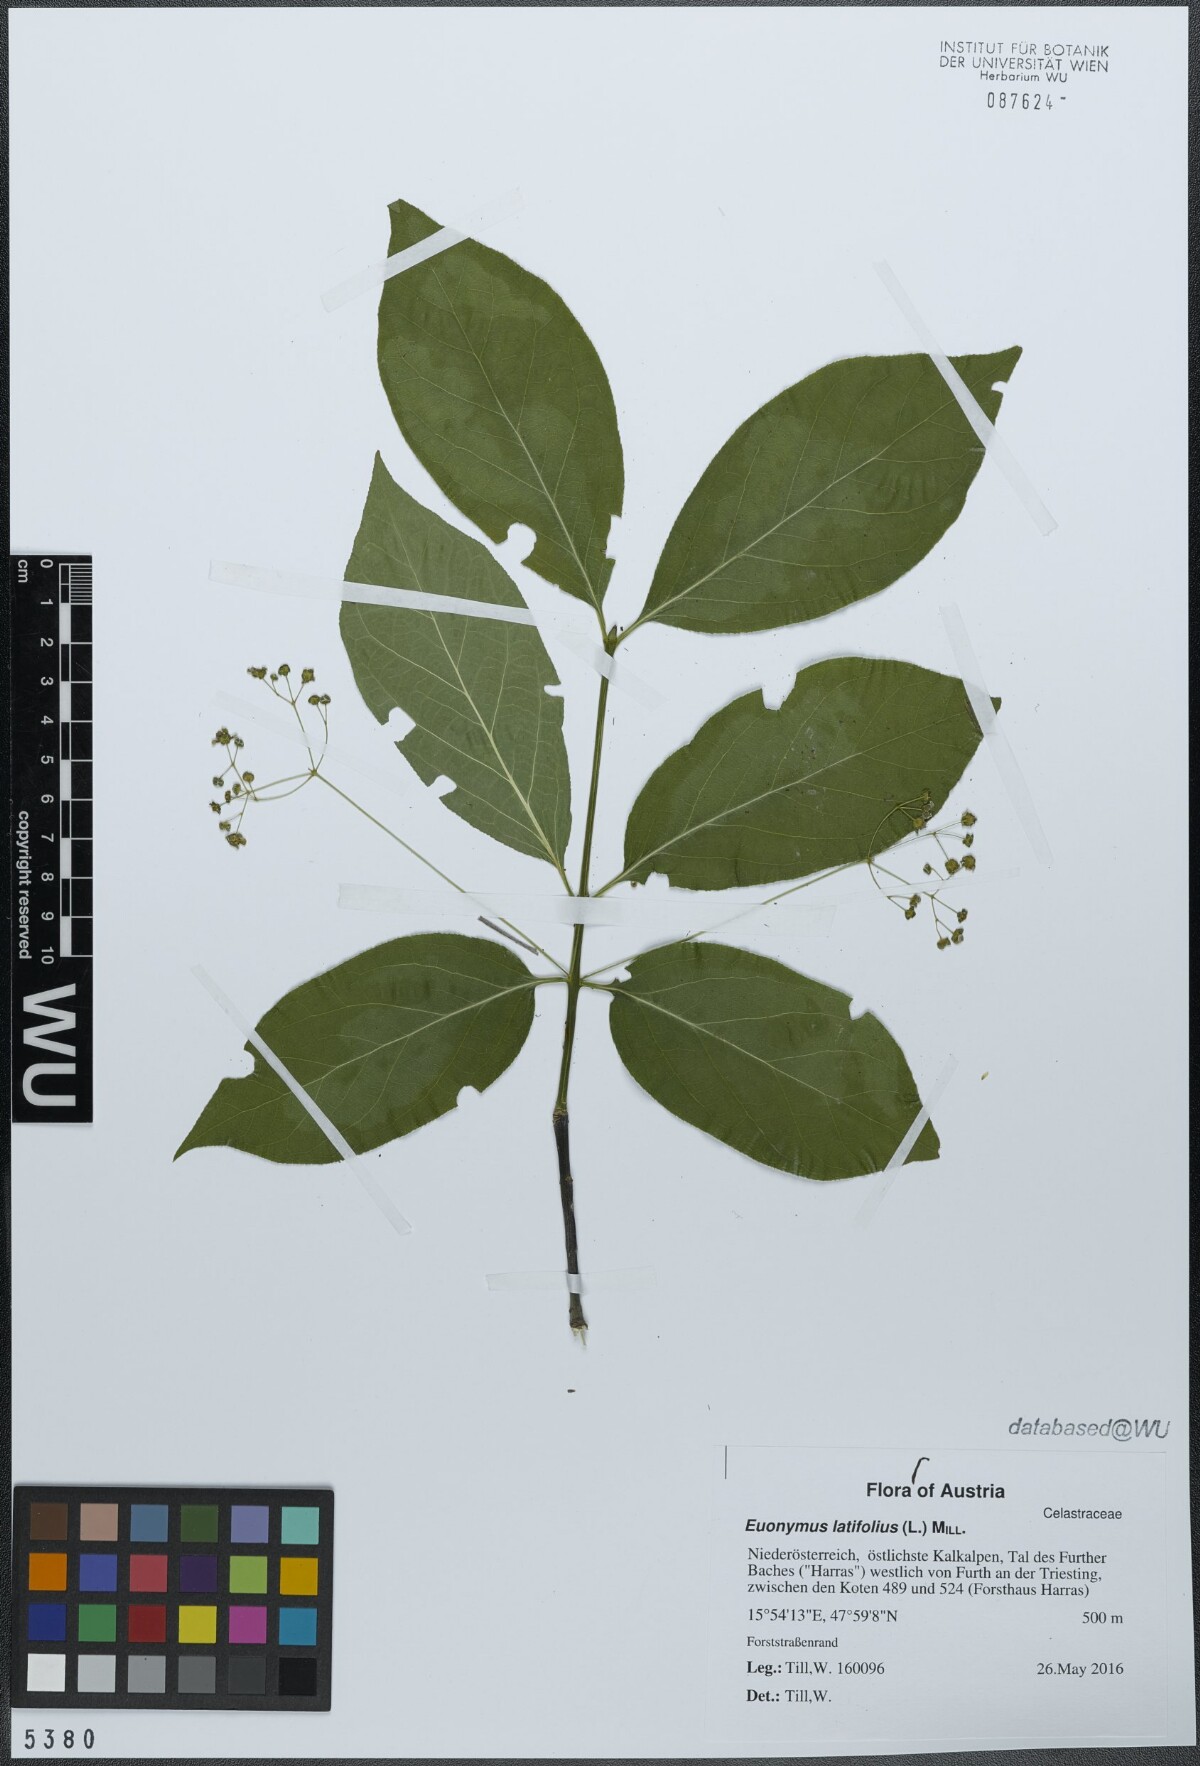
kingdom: Plantae
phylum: Tracheophyta
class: Magnoliopsida
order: Celastrales
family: Celastraceae
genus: Euonymus
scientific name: Euonymus latifolius
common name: Large-leaved spindle
